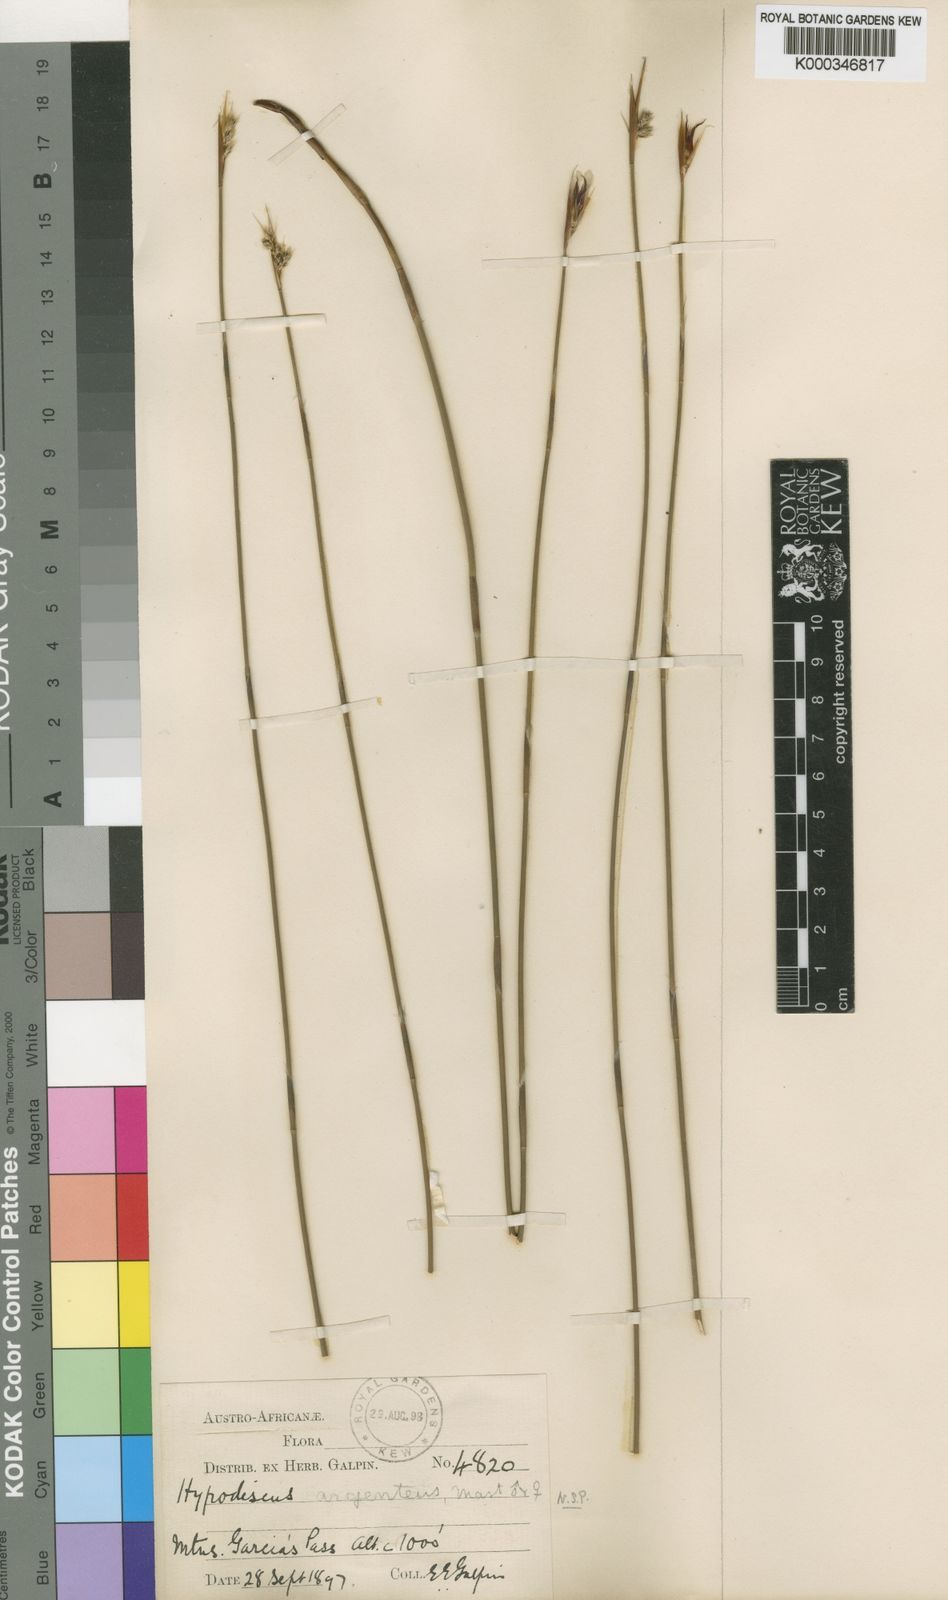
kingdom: Plantae
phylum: Tracheophyta
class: Liliopsida
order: Poales
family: Restionaceae
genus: Hypodiscus
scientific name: Hypodiscus argenteus
